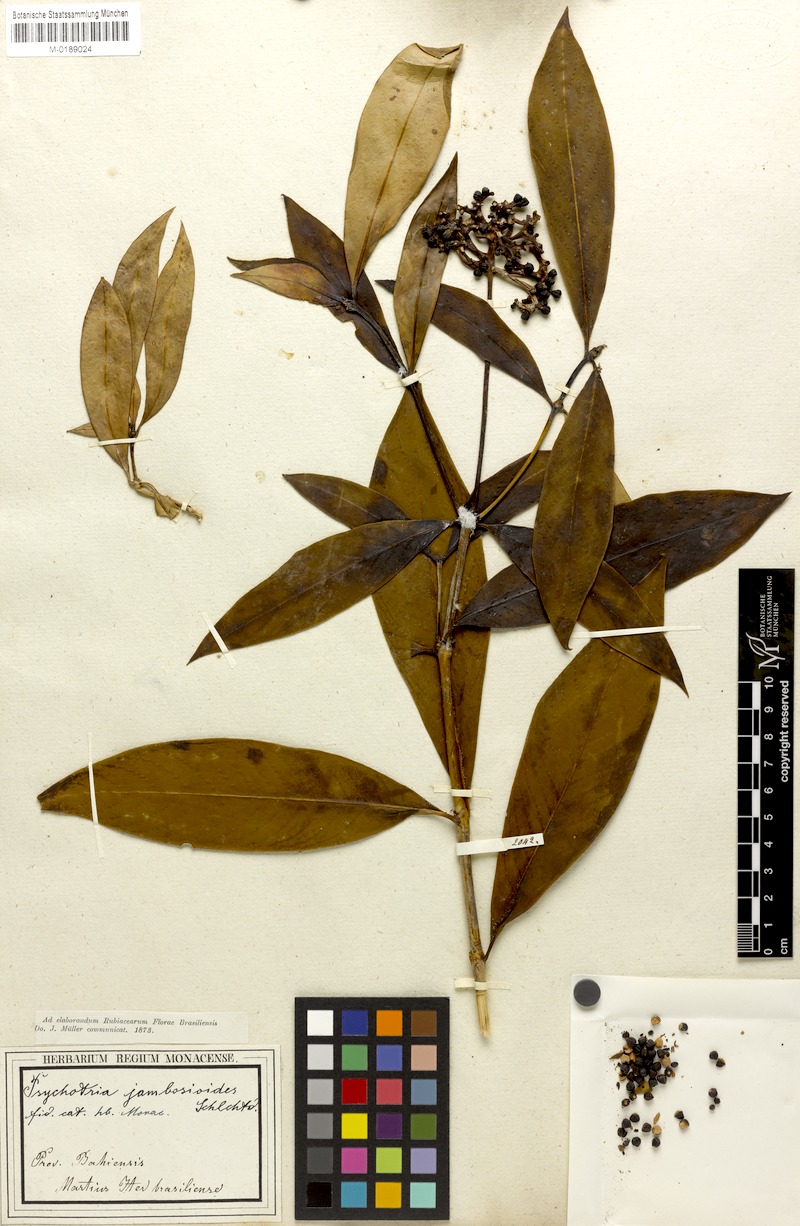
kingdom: Plantae
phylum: Tracheophyta
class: Magnoliopsida
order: Gentianales
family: Rubiaceae
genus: Palicourea
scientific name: Palicourea jambosioides
